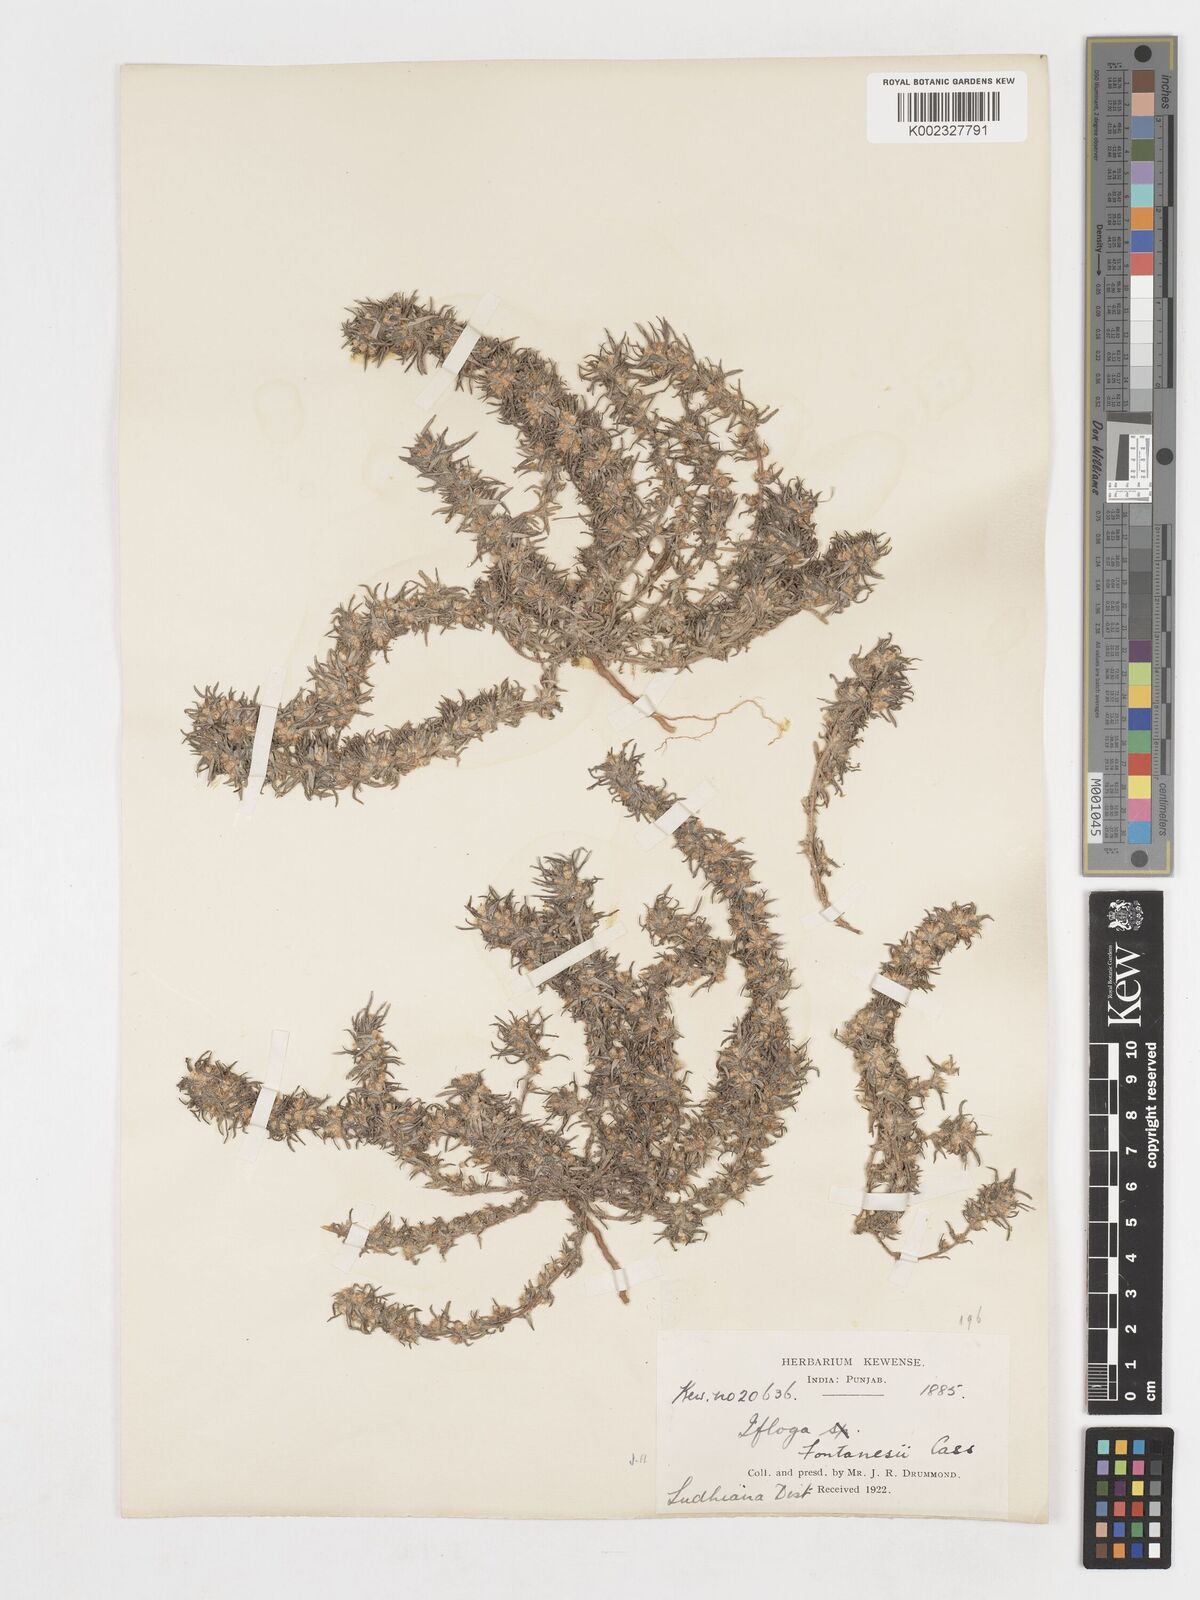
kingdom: Plantae
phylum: Tracheophyta
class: Magnoliopsida
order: Asterales
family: Asteraceae
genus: Ifloga
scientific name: Ifloga spicata
